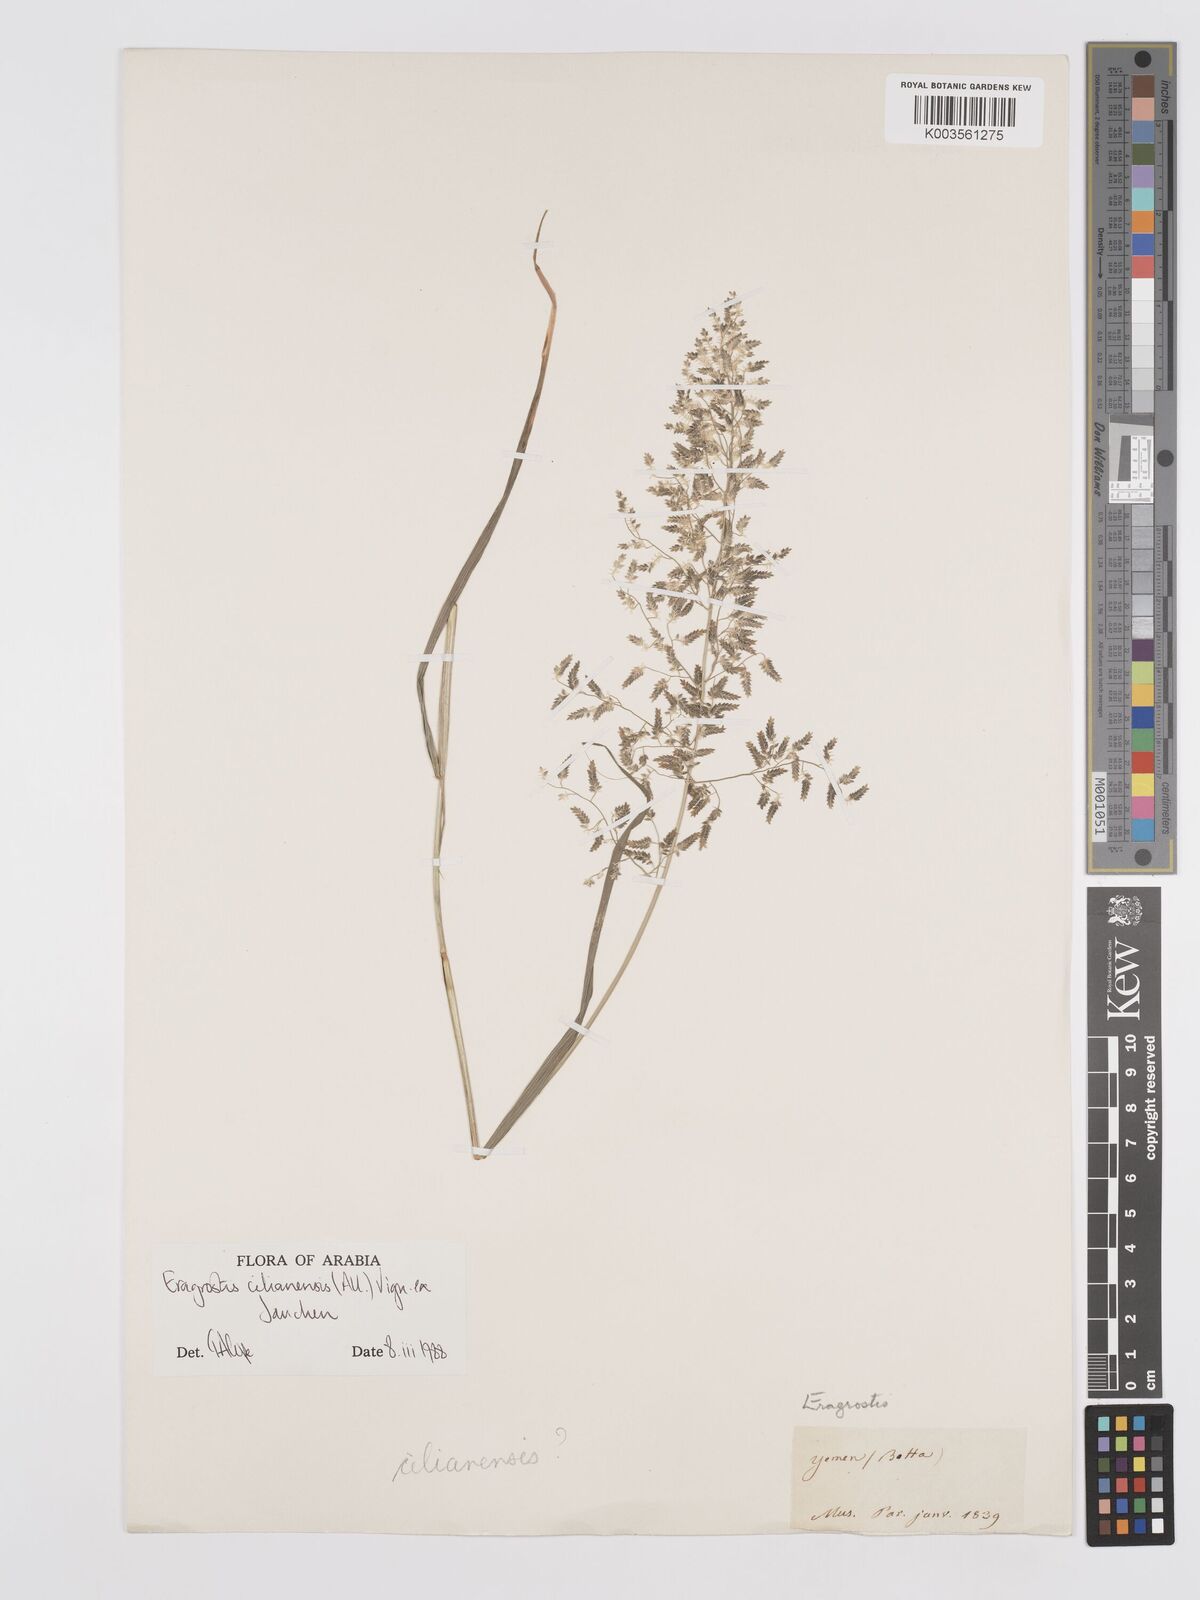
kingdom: Plantae
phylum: Tracheophyta
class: Liliopsida
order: Poales
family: Poaceae
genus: Eragrostis
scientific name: Eragrostis cilianensis
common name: Stinkgrass
